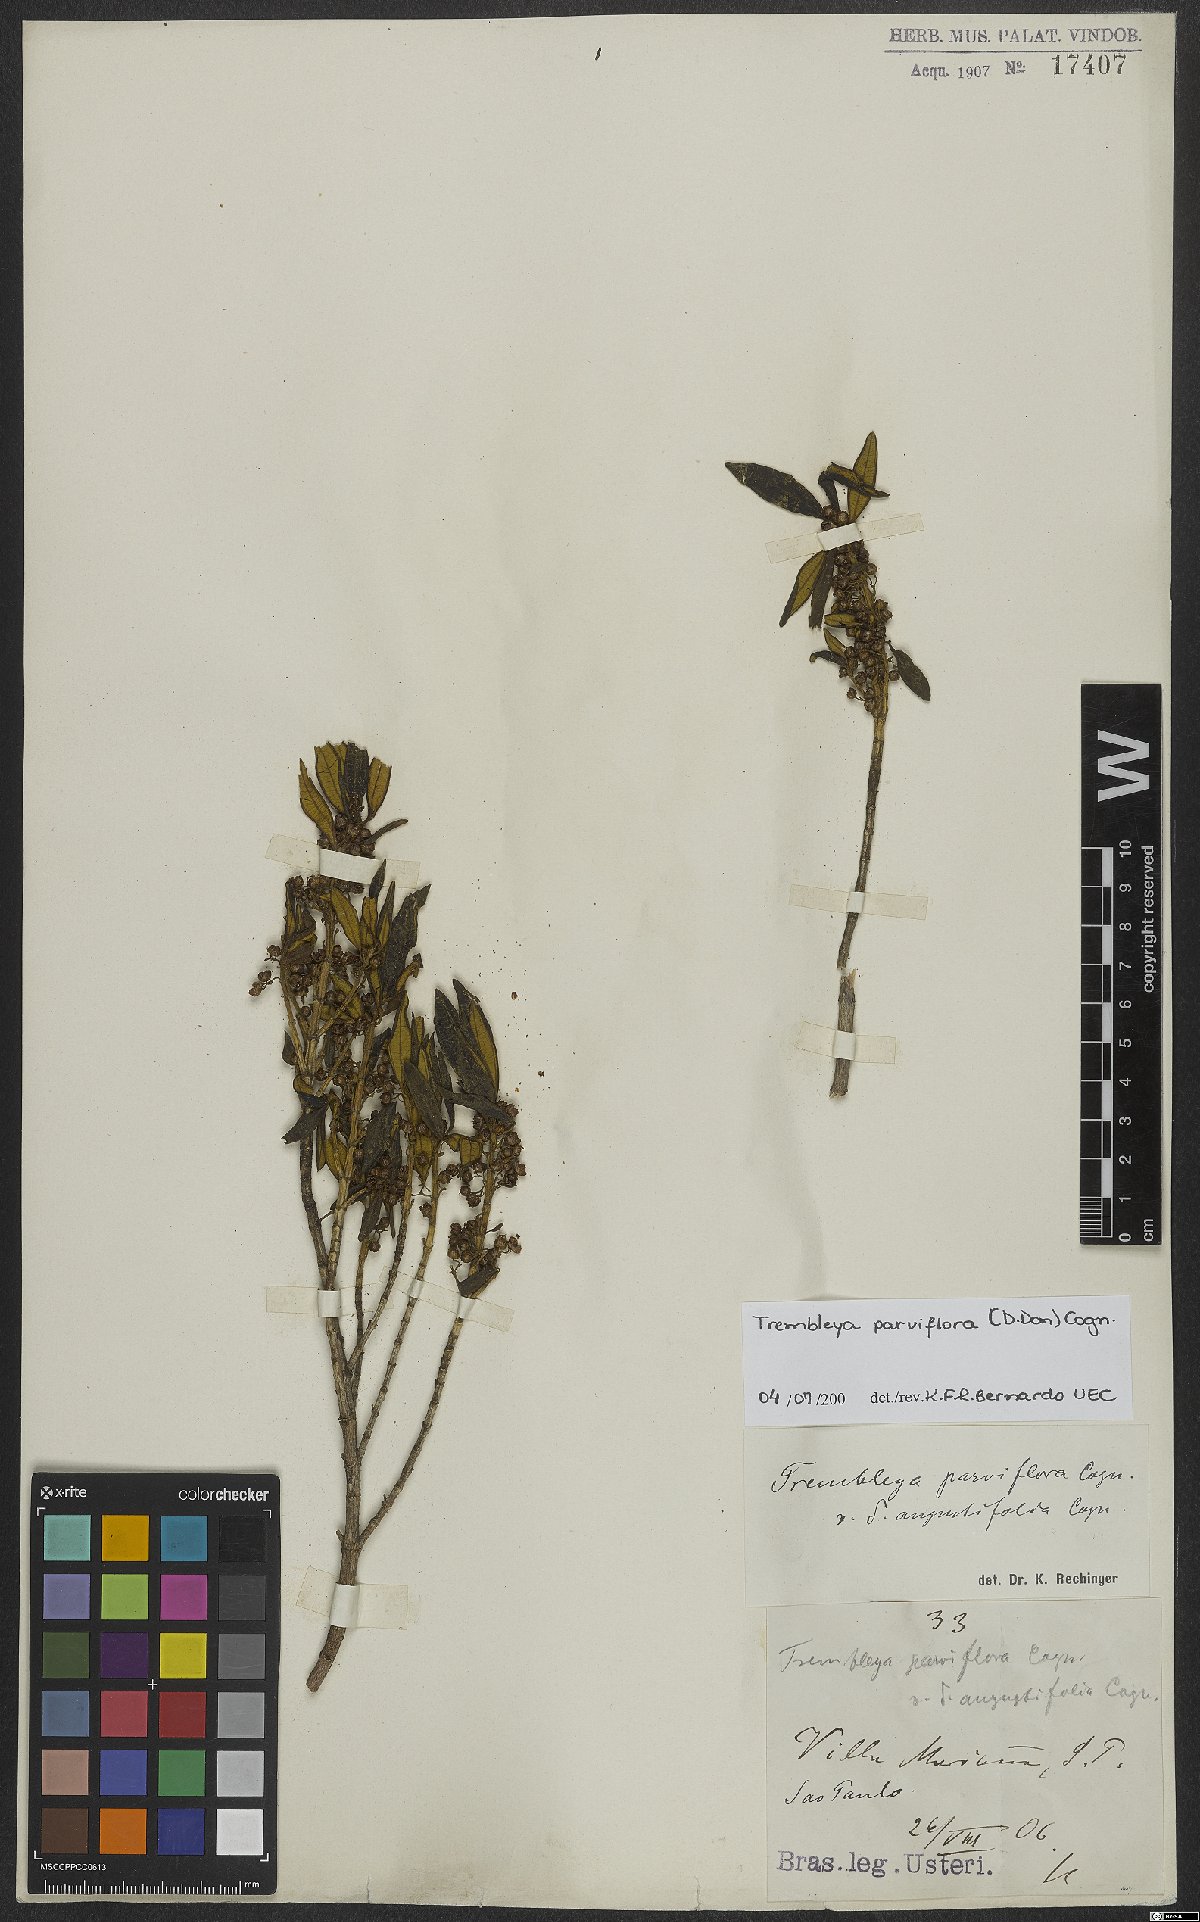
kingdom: Plantae
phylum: Tracheophyta
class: Magnoliopsida
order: Myrtales
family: Melastomataceae
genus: Microlicia
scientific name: Microlicia parviflora
